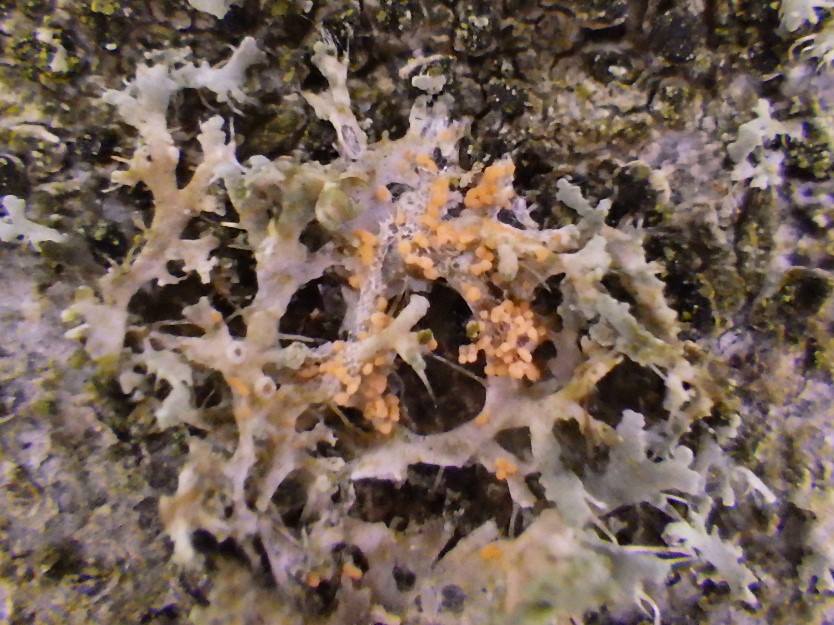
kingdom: Fungi
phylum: Basidiomycota
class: Agaricomycetes
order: Corticiales
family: Corticiaceae
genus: Erythricium
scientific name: Erythricium aurantiacum
